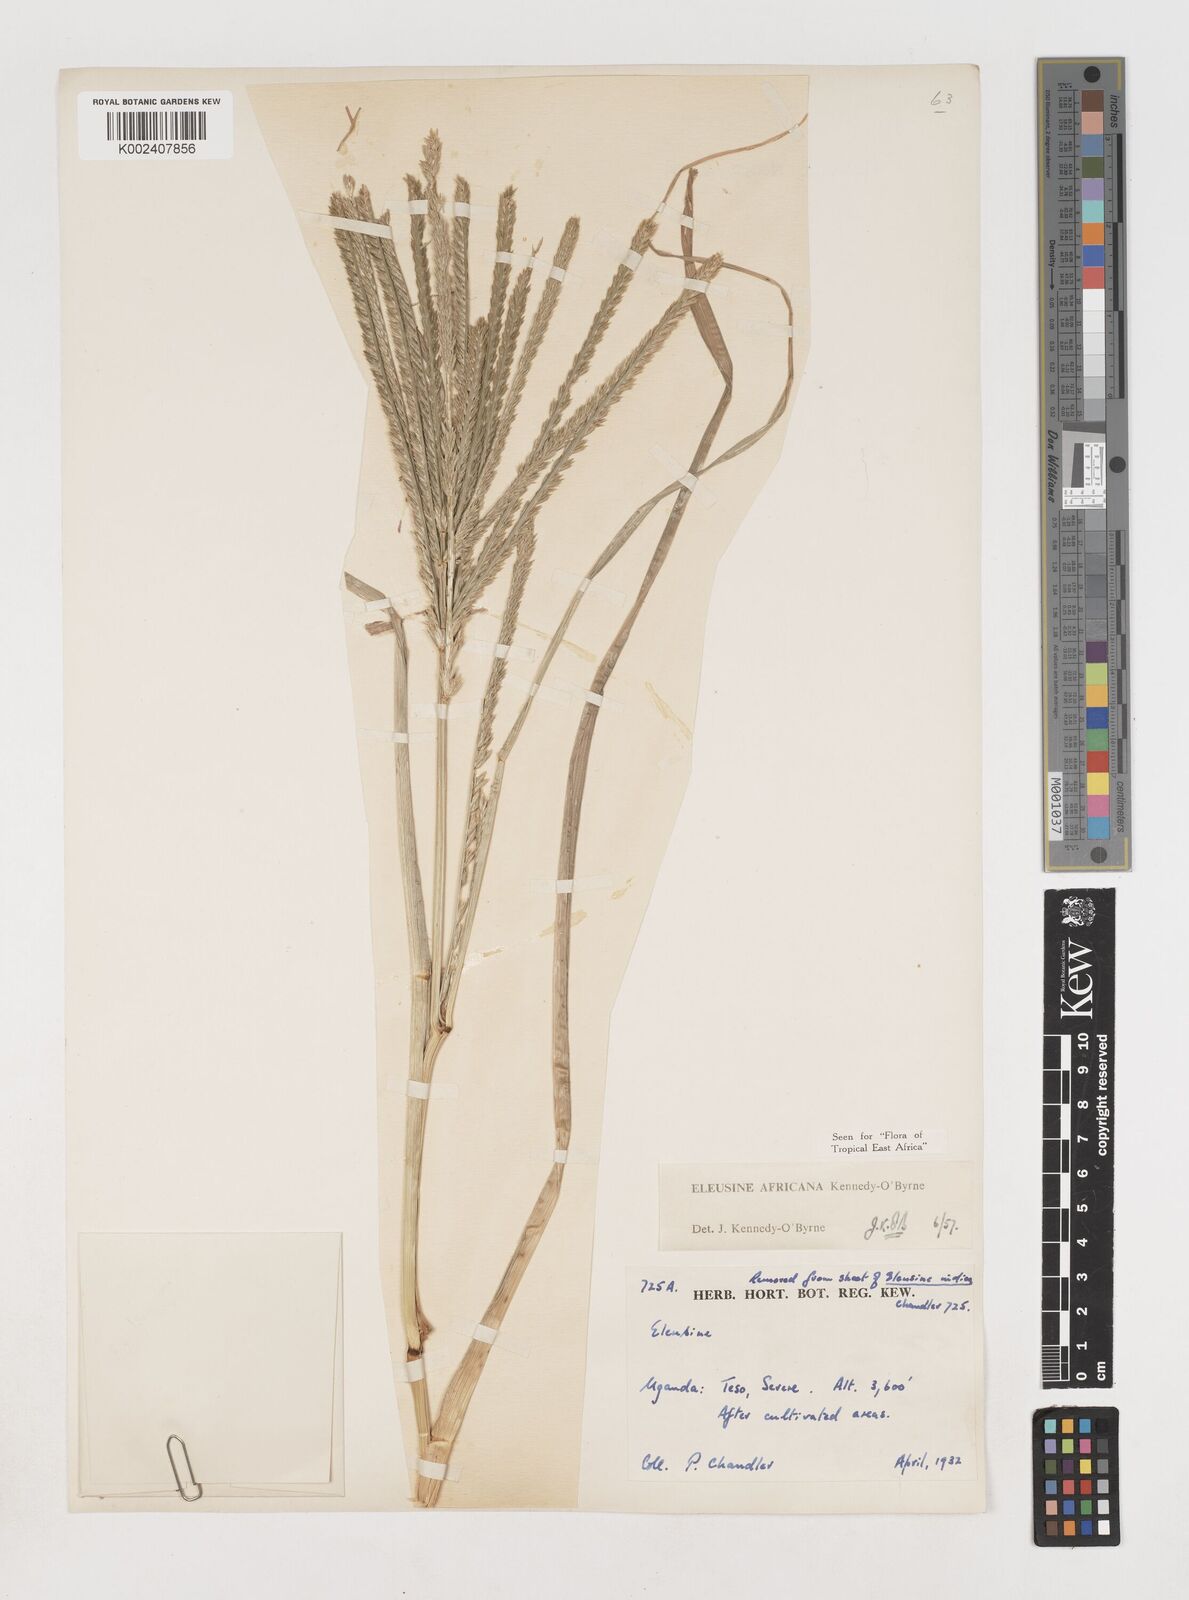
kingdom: Plantae
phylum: Tracheophyta
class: Liliopsida
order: Poales
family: Poaceae
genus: Eleusine
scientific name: Eleusine africana
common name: Wild african finger millet
